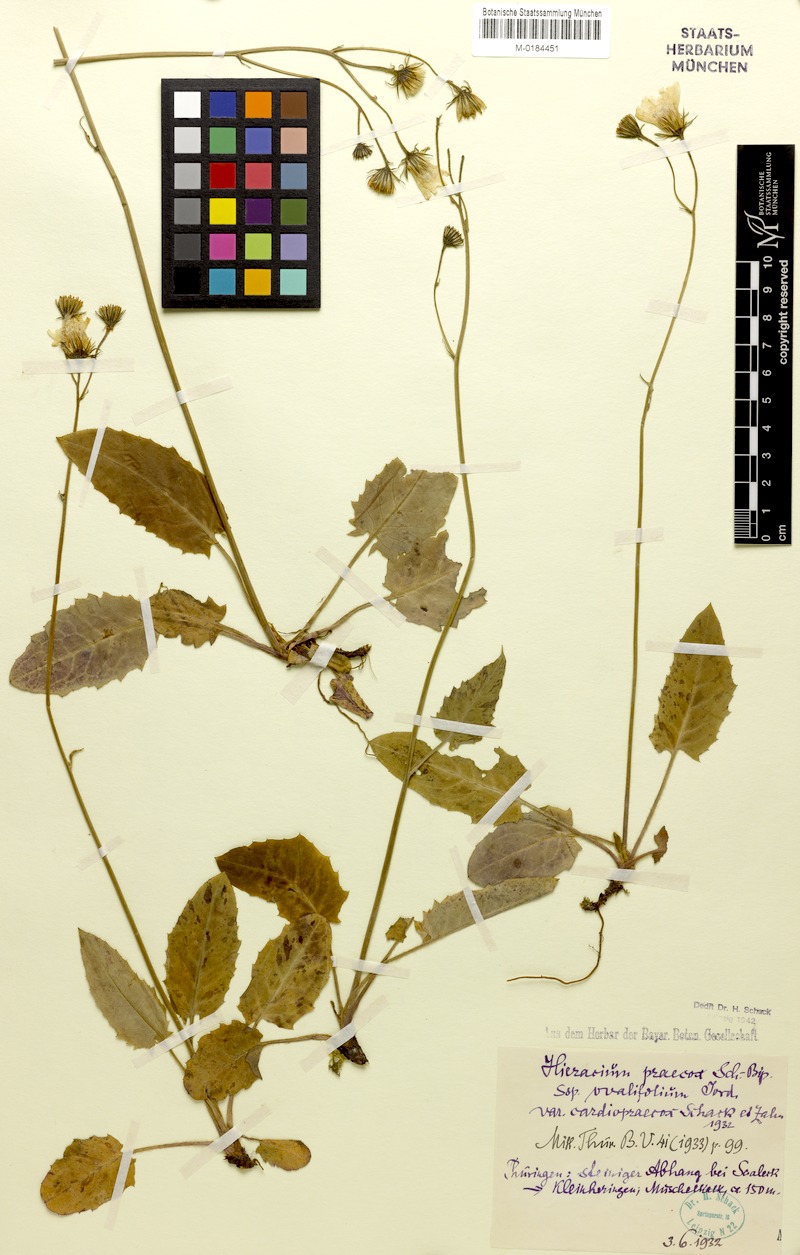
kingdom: Plantae
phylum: Tracheophyta
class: Magnoliopsida
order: Asterales
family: Asteraceae
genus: Hieracium
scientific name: Hieracium glaucinum
